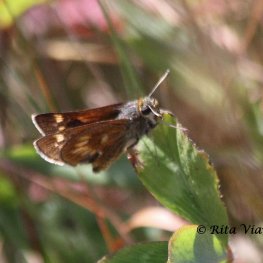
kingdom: Animalia
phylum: Arthropoda
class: Insecta
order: Lepidoptera
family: Hesperiidae
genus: Polites
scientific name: Polites
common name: Long Dash Skipper
